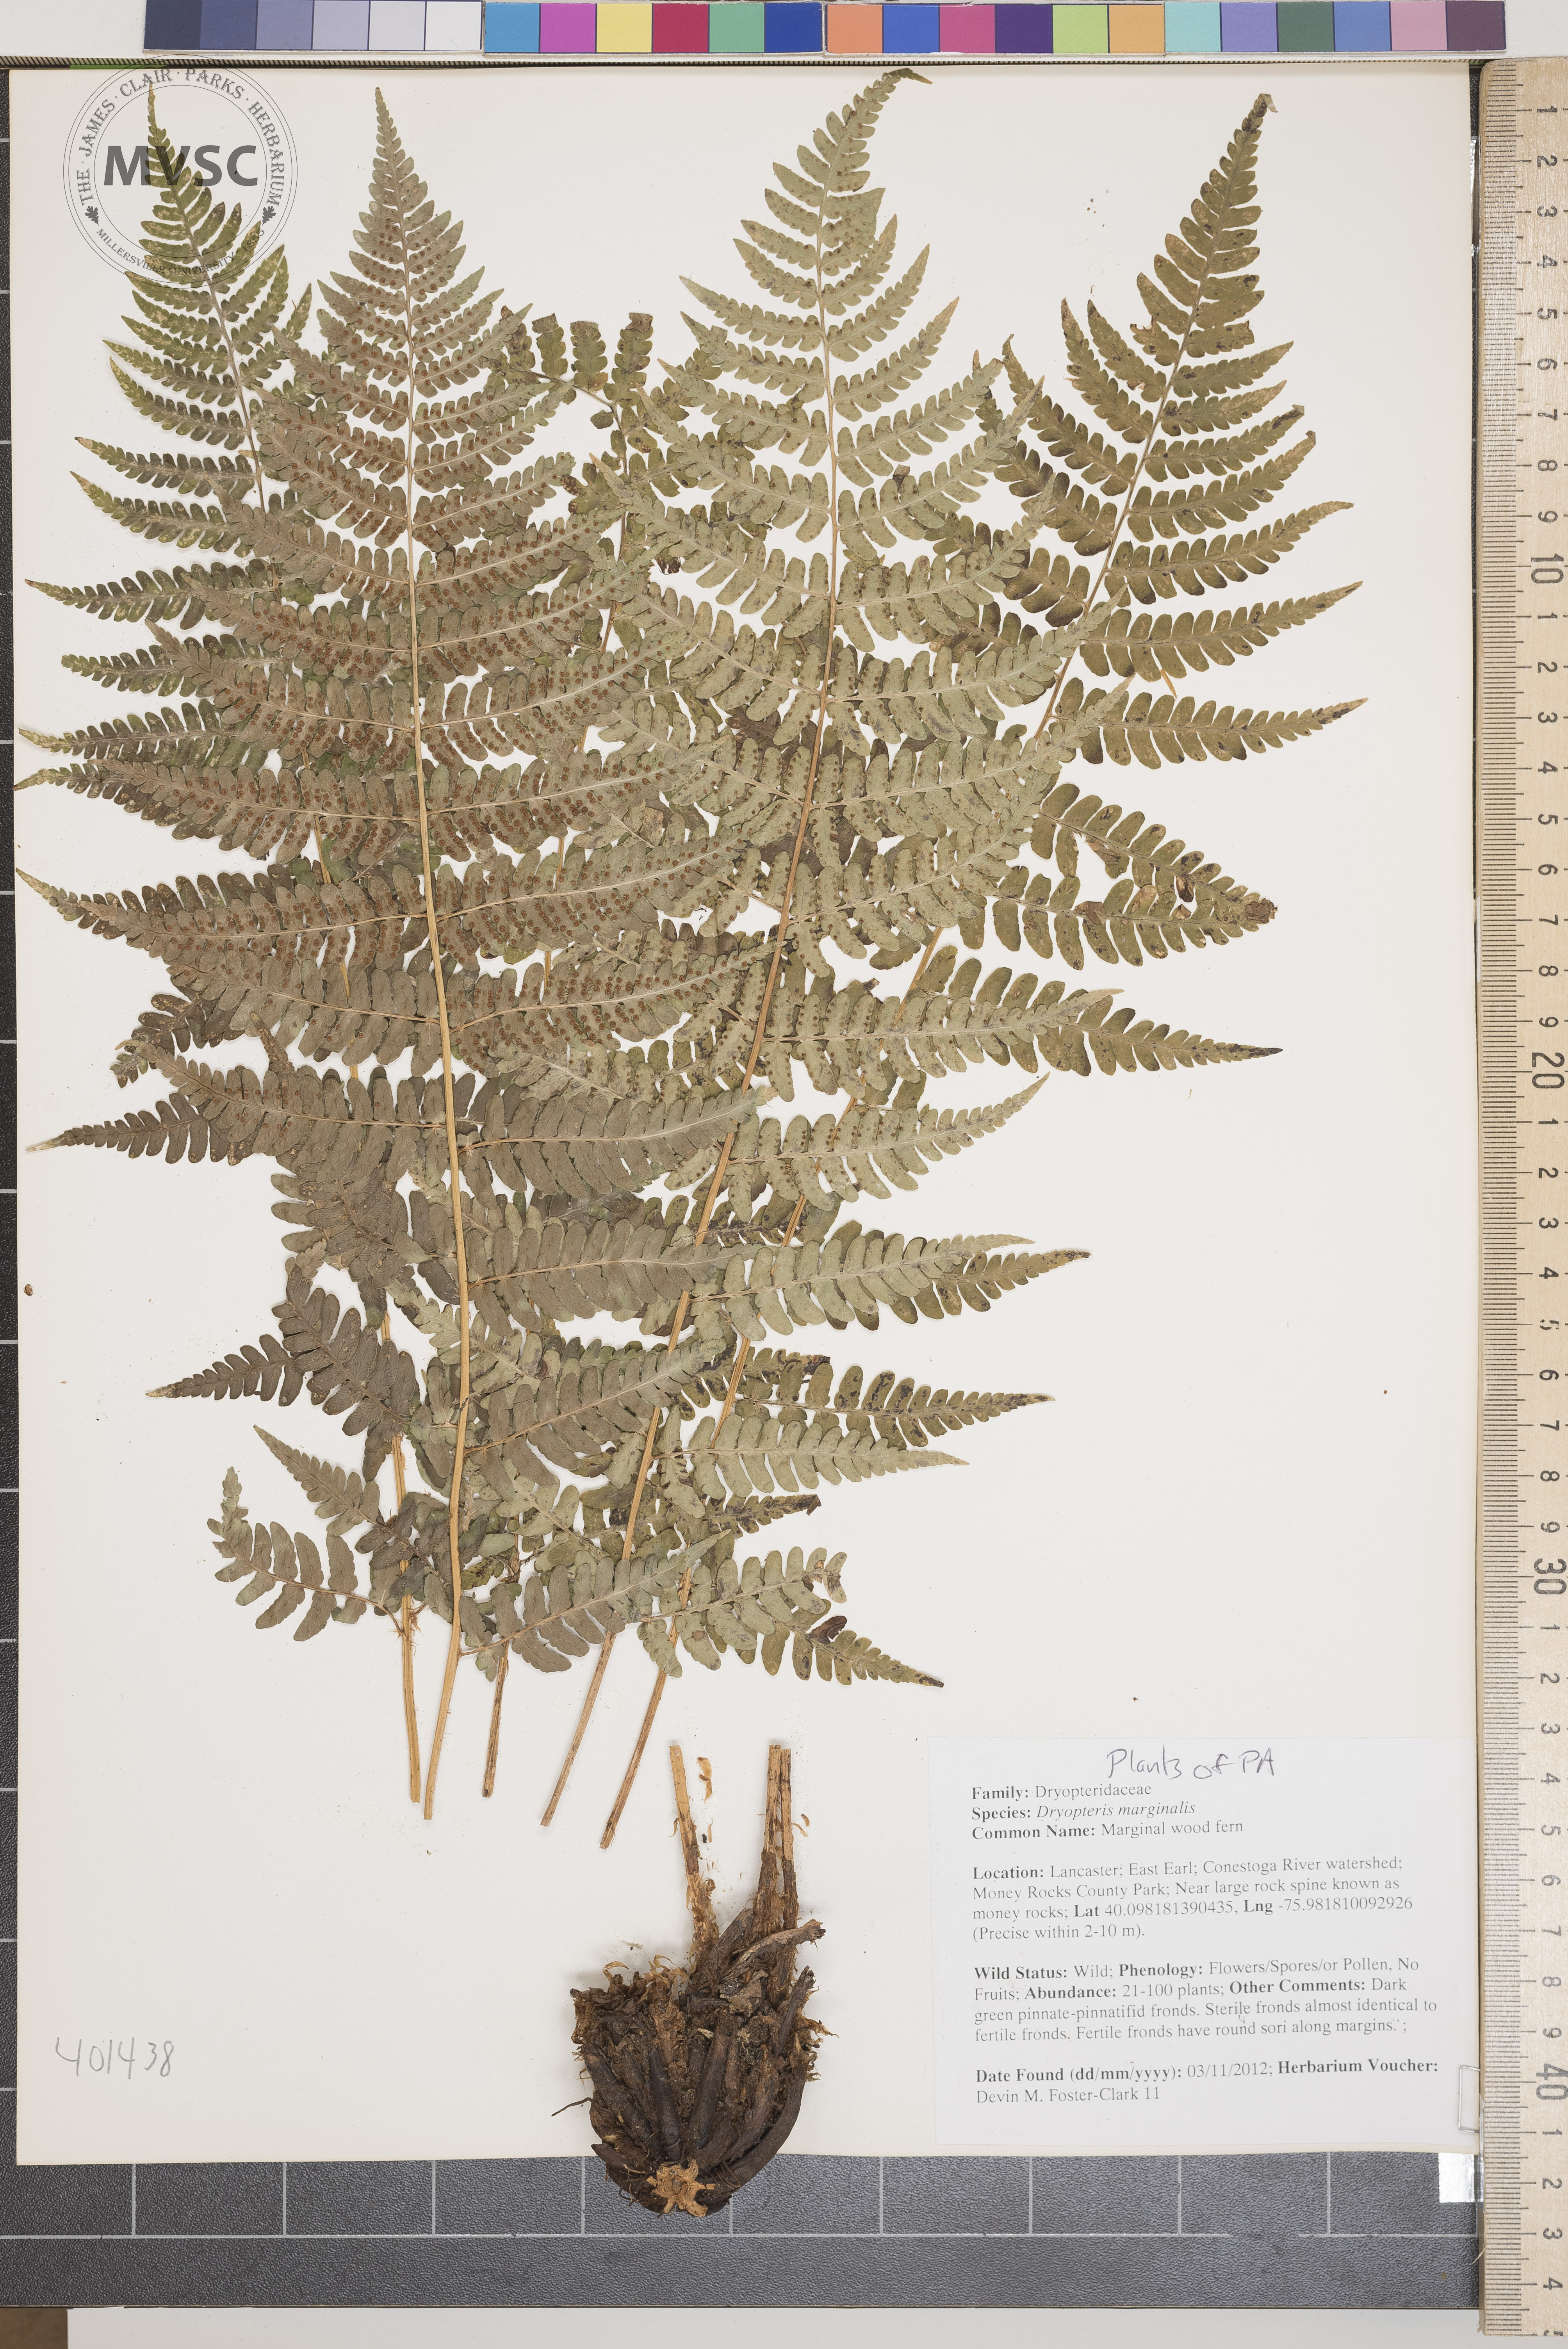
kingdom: Plantae
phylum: Tracheophyta
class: Polypodiopsida
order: Polypodiales
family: Dryopteridaceae
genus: Dryopteris
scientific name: Dryopteris marginalis
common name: Marginal wood fern
